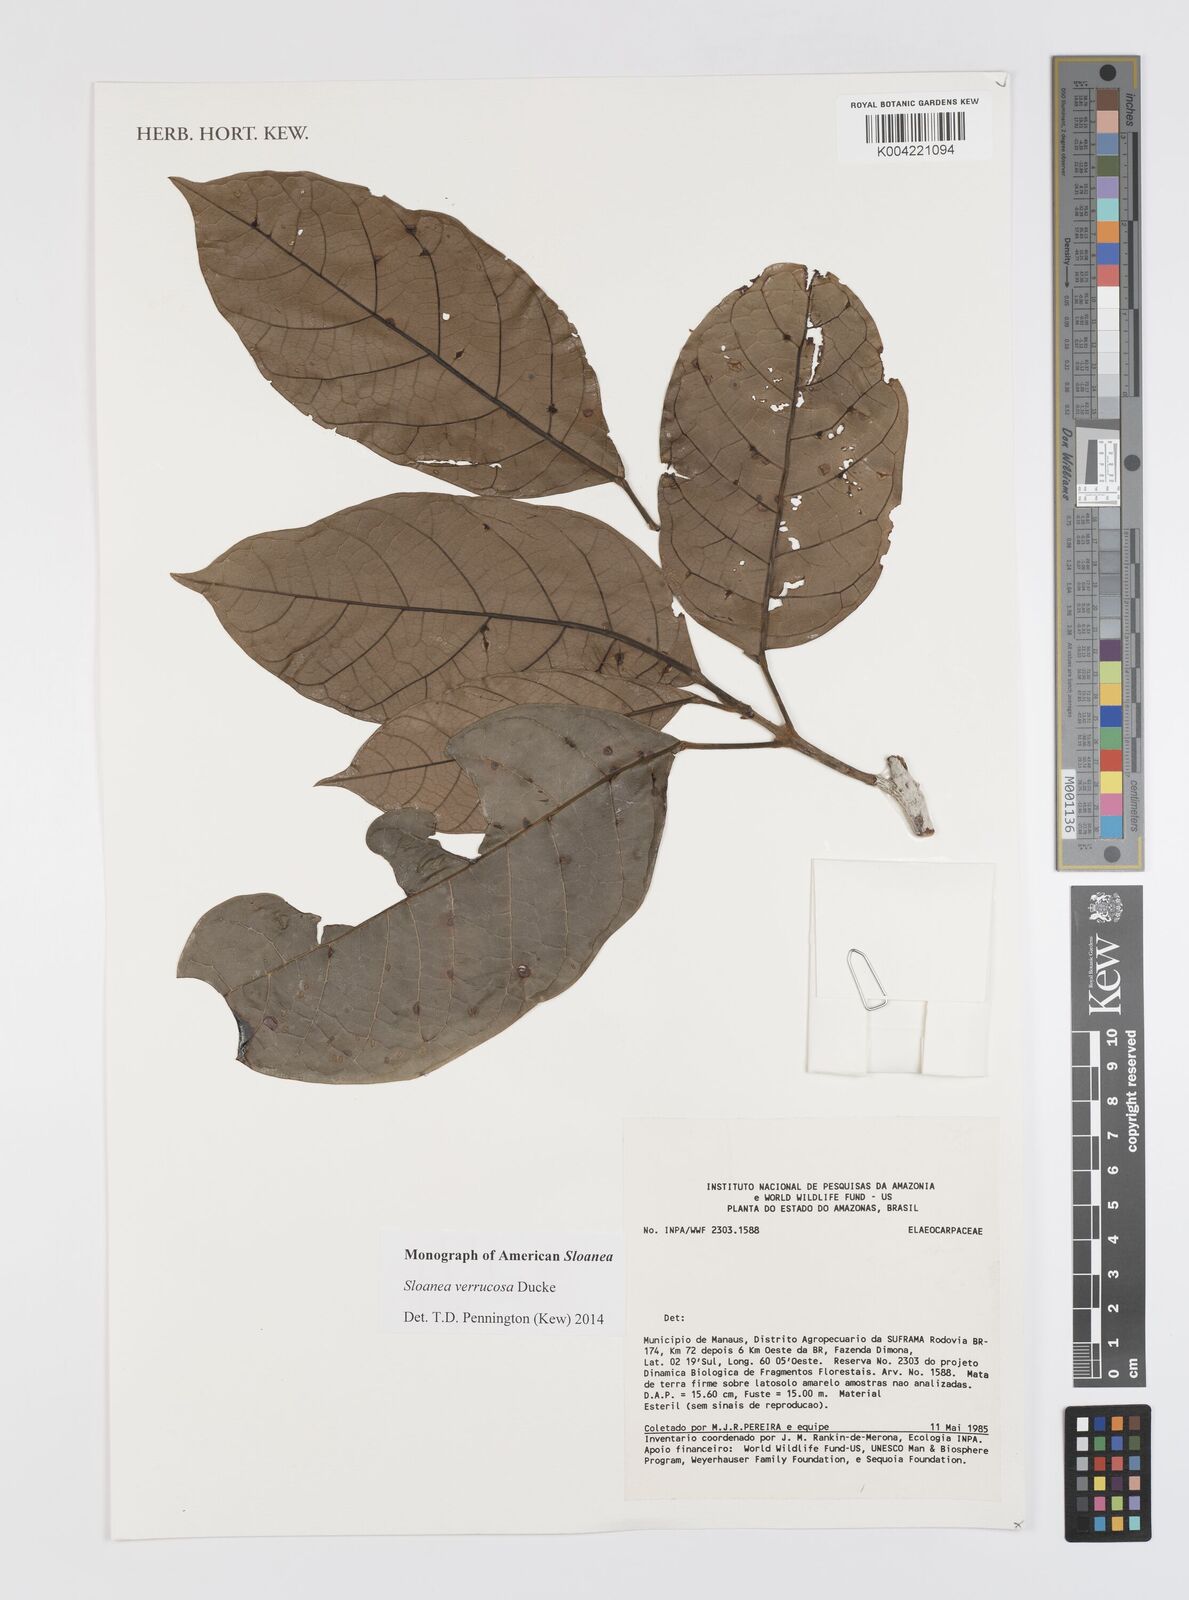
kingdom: Plantae
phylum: Tracheophyta
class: Magnoliopsida
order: Oxalidales
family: Elaeocarpaceae
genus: Sloanea
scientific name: Sloanea schomburgkii
